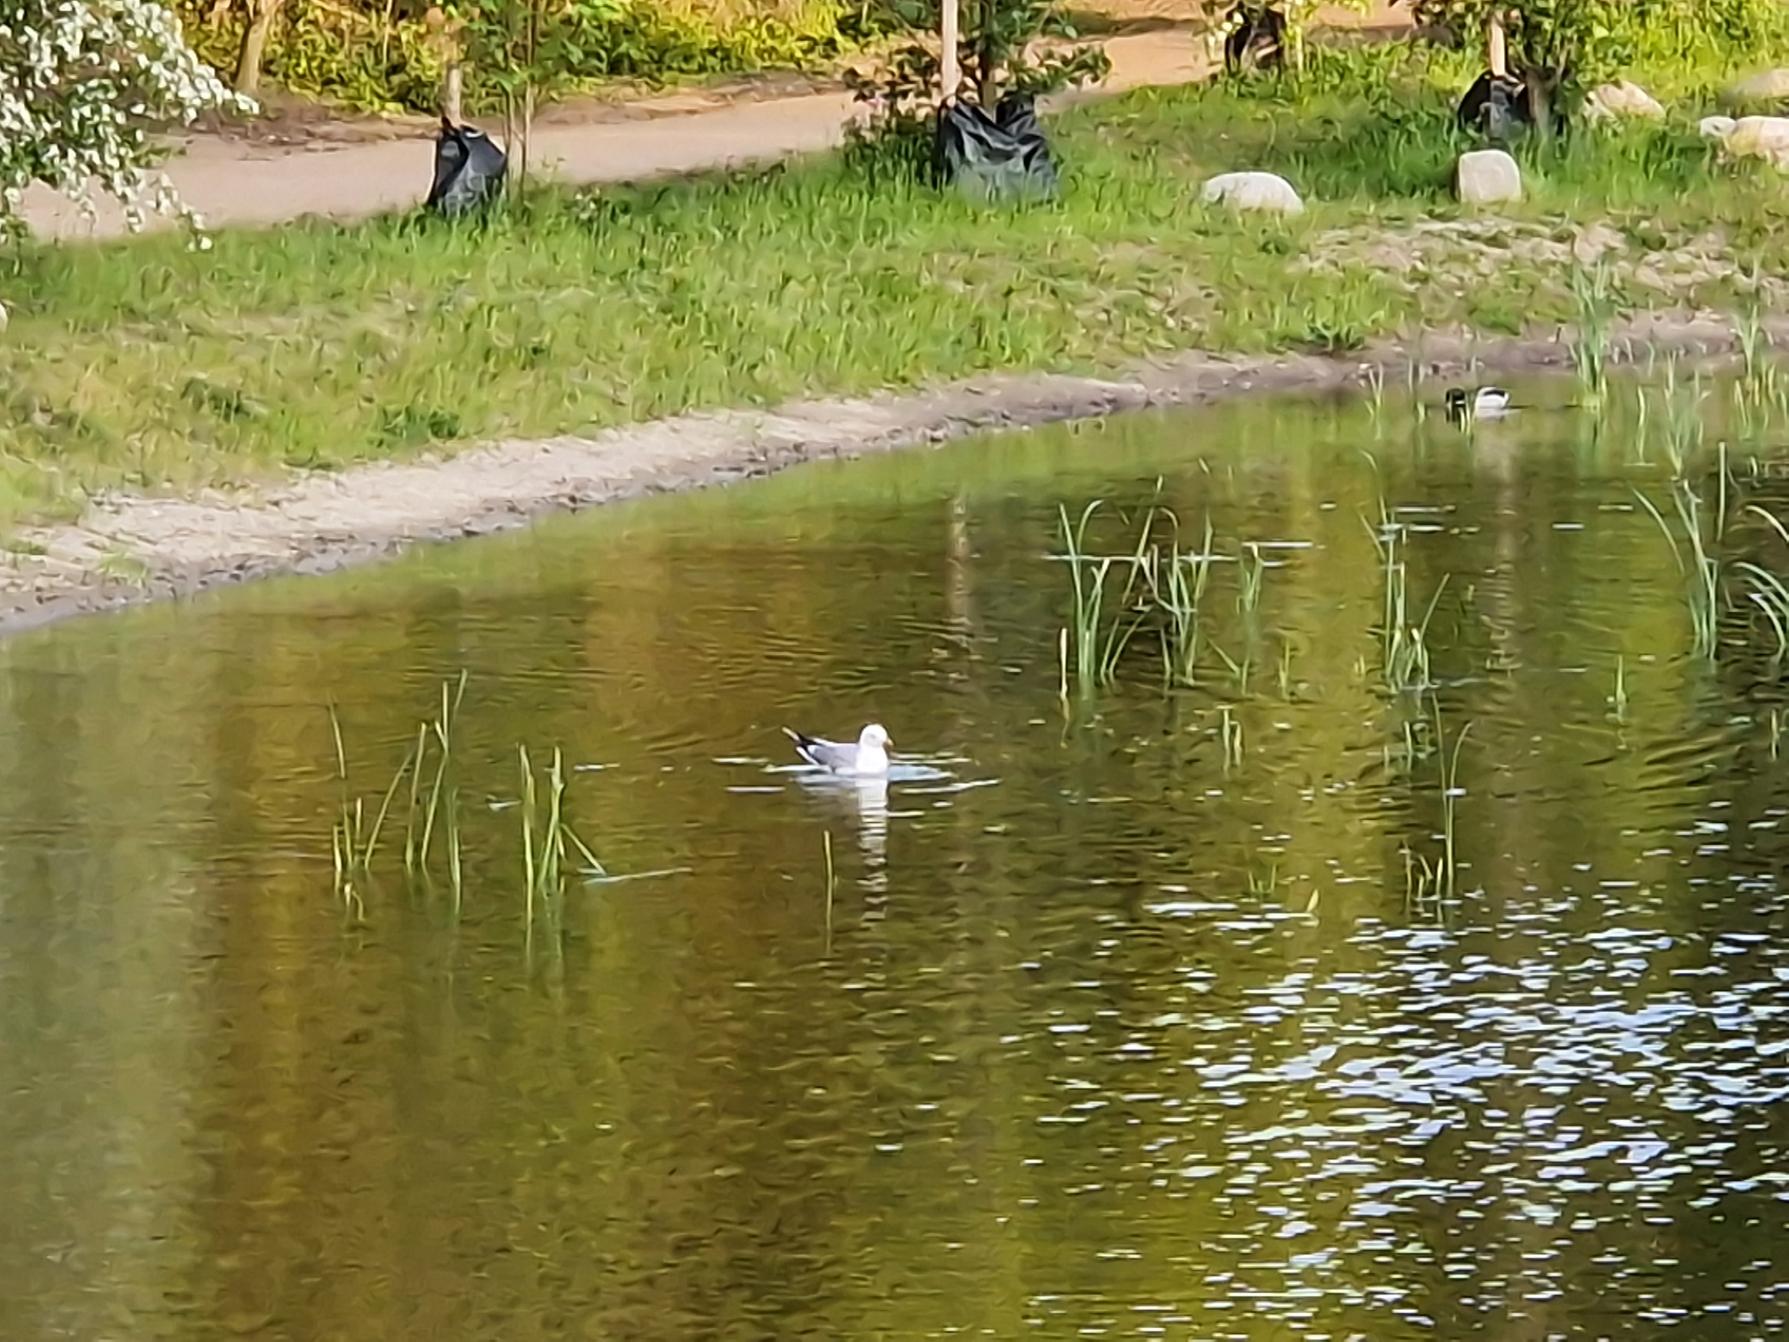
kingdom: Animalia
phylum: Chordata
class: Aves
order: Charadriiformes
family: Laridae
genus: Larus
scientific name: Larus canus
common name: Stormmåge
